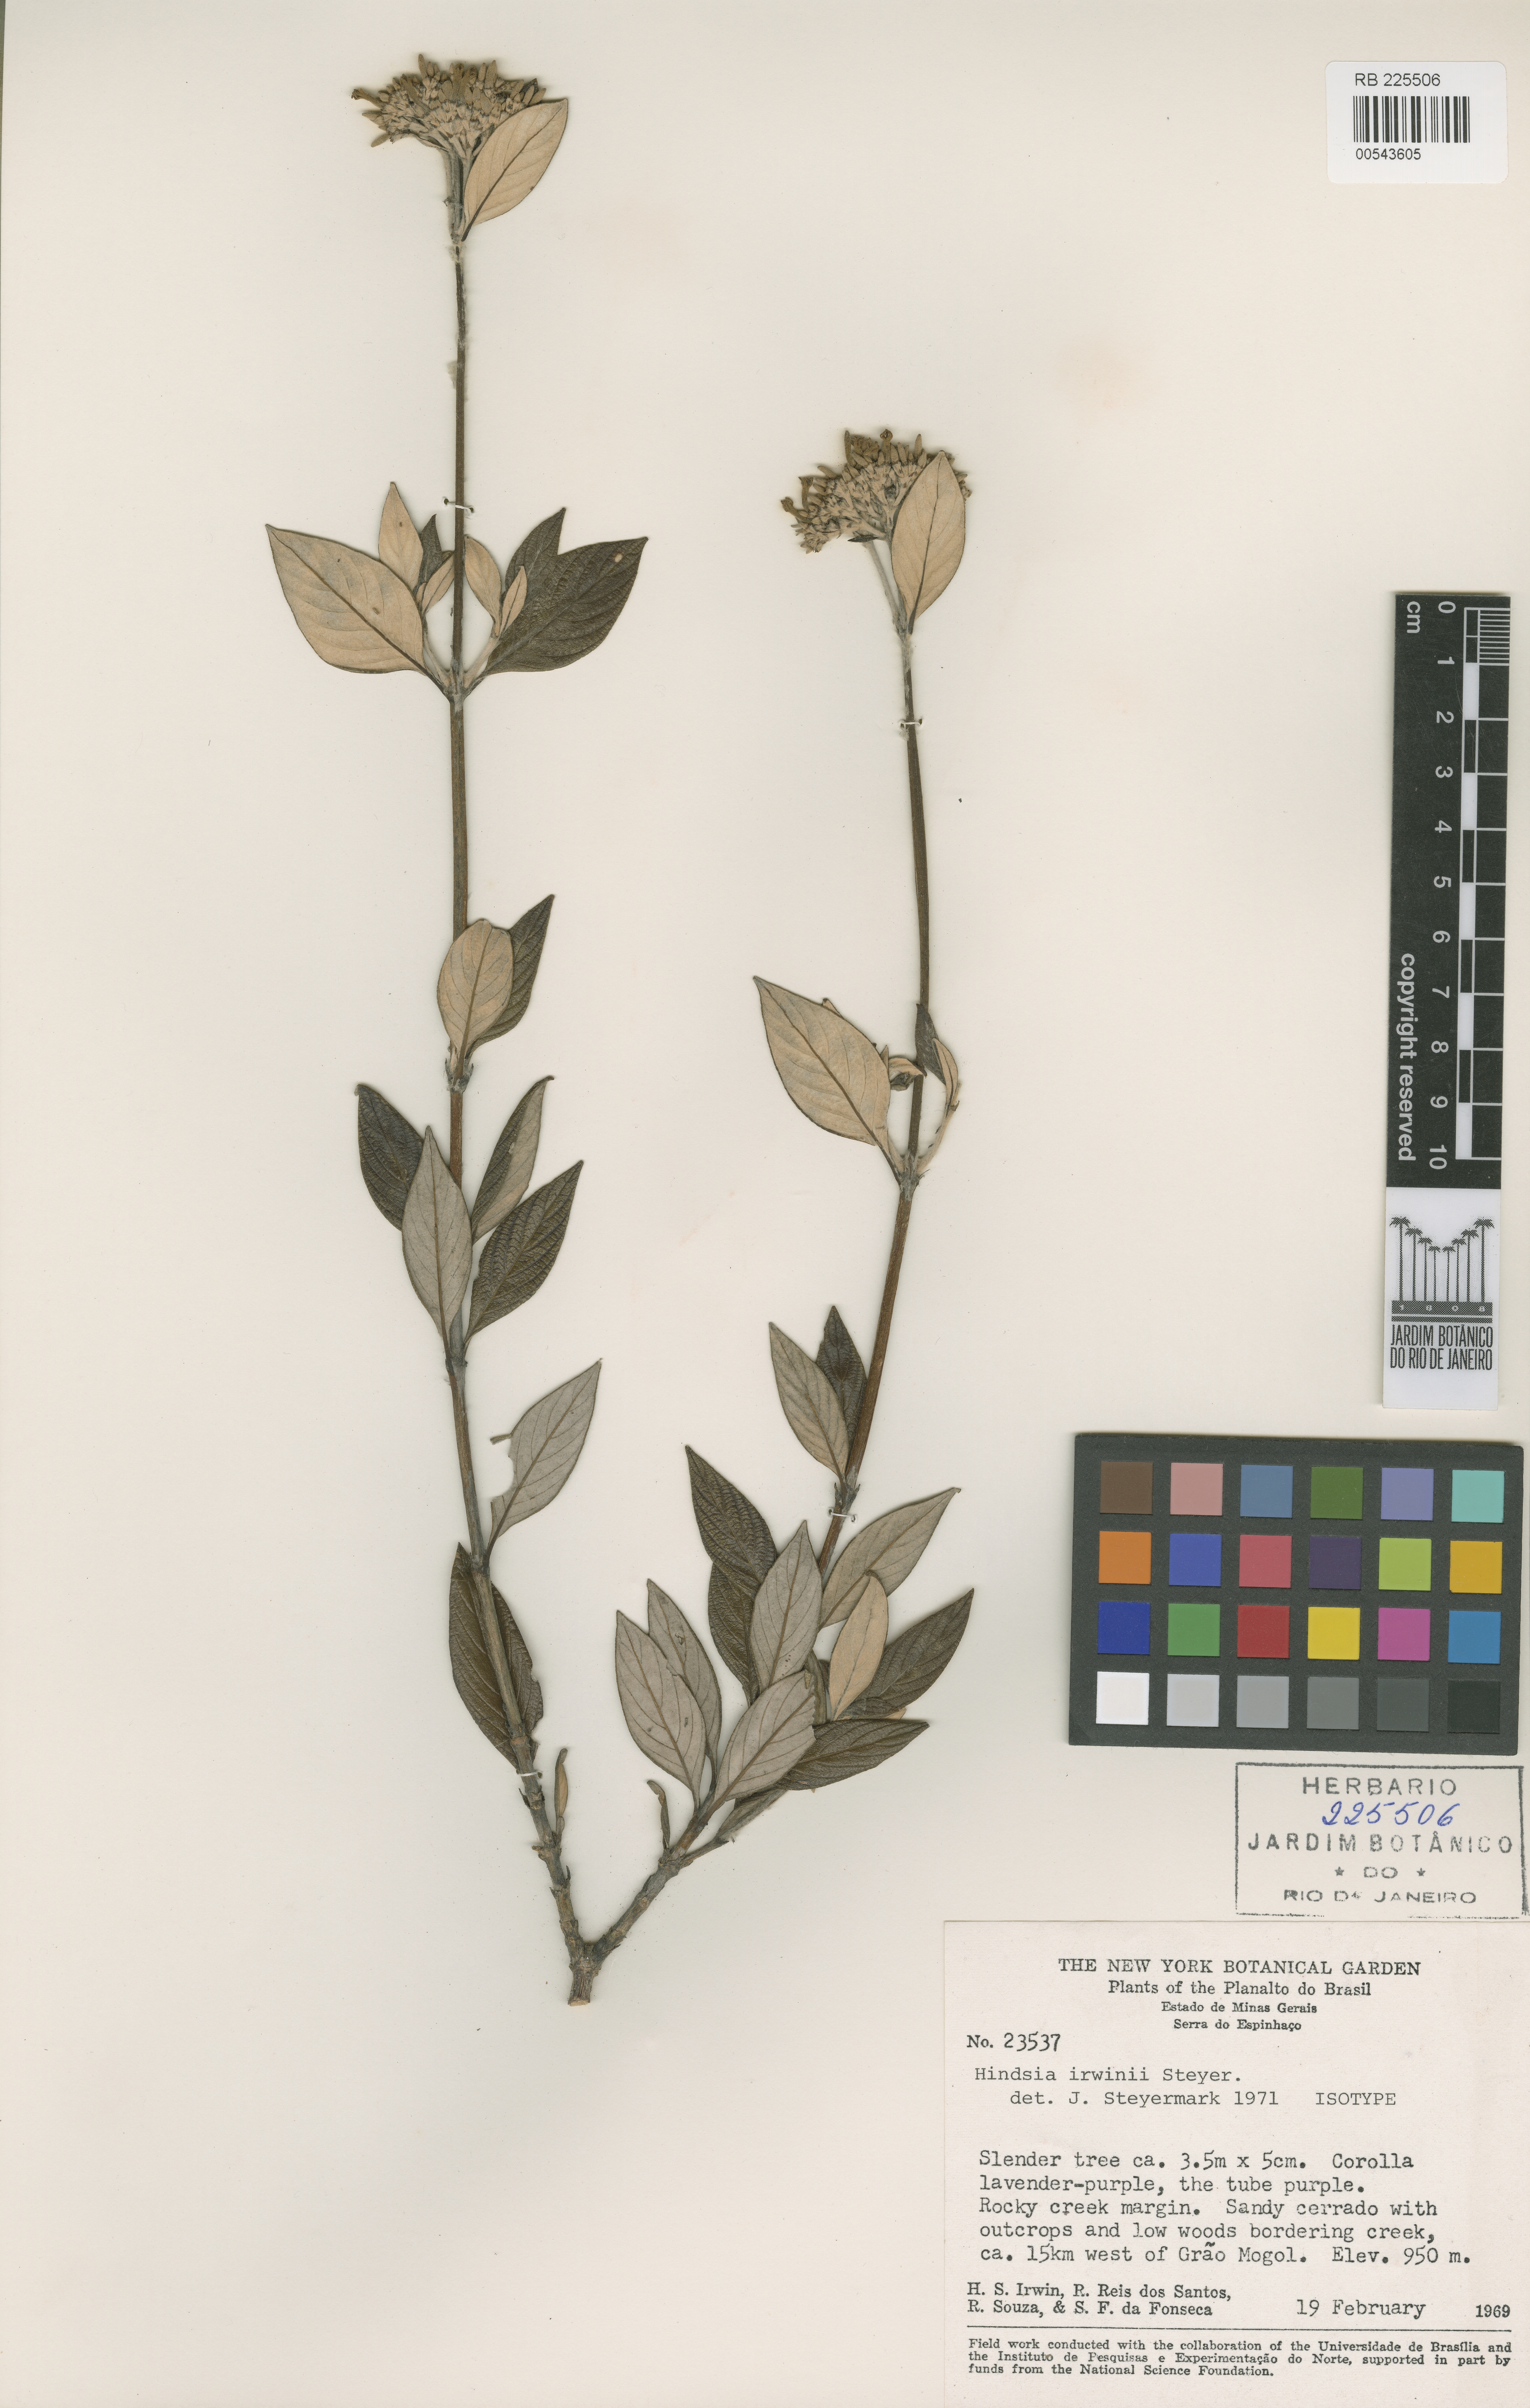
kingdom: Plantae
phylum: Tracheophyta
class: Magnoliopsida
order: Gentianales
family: Rubiaceae
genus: Hindsia
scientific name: Hindsia irwinii
